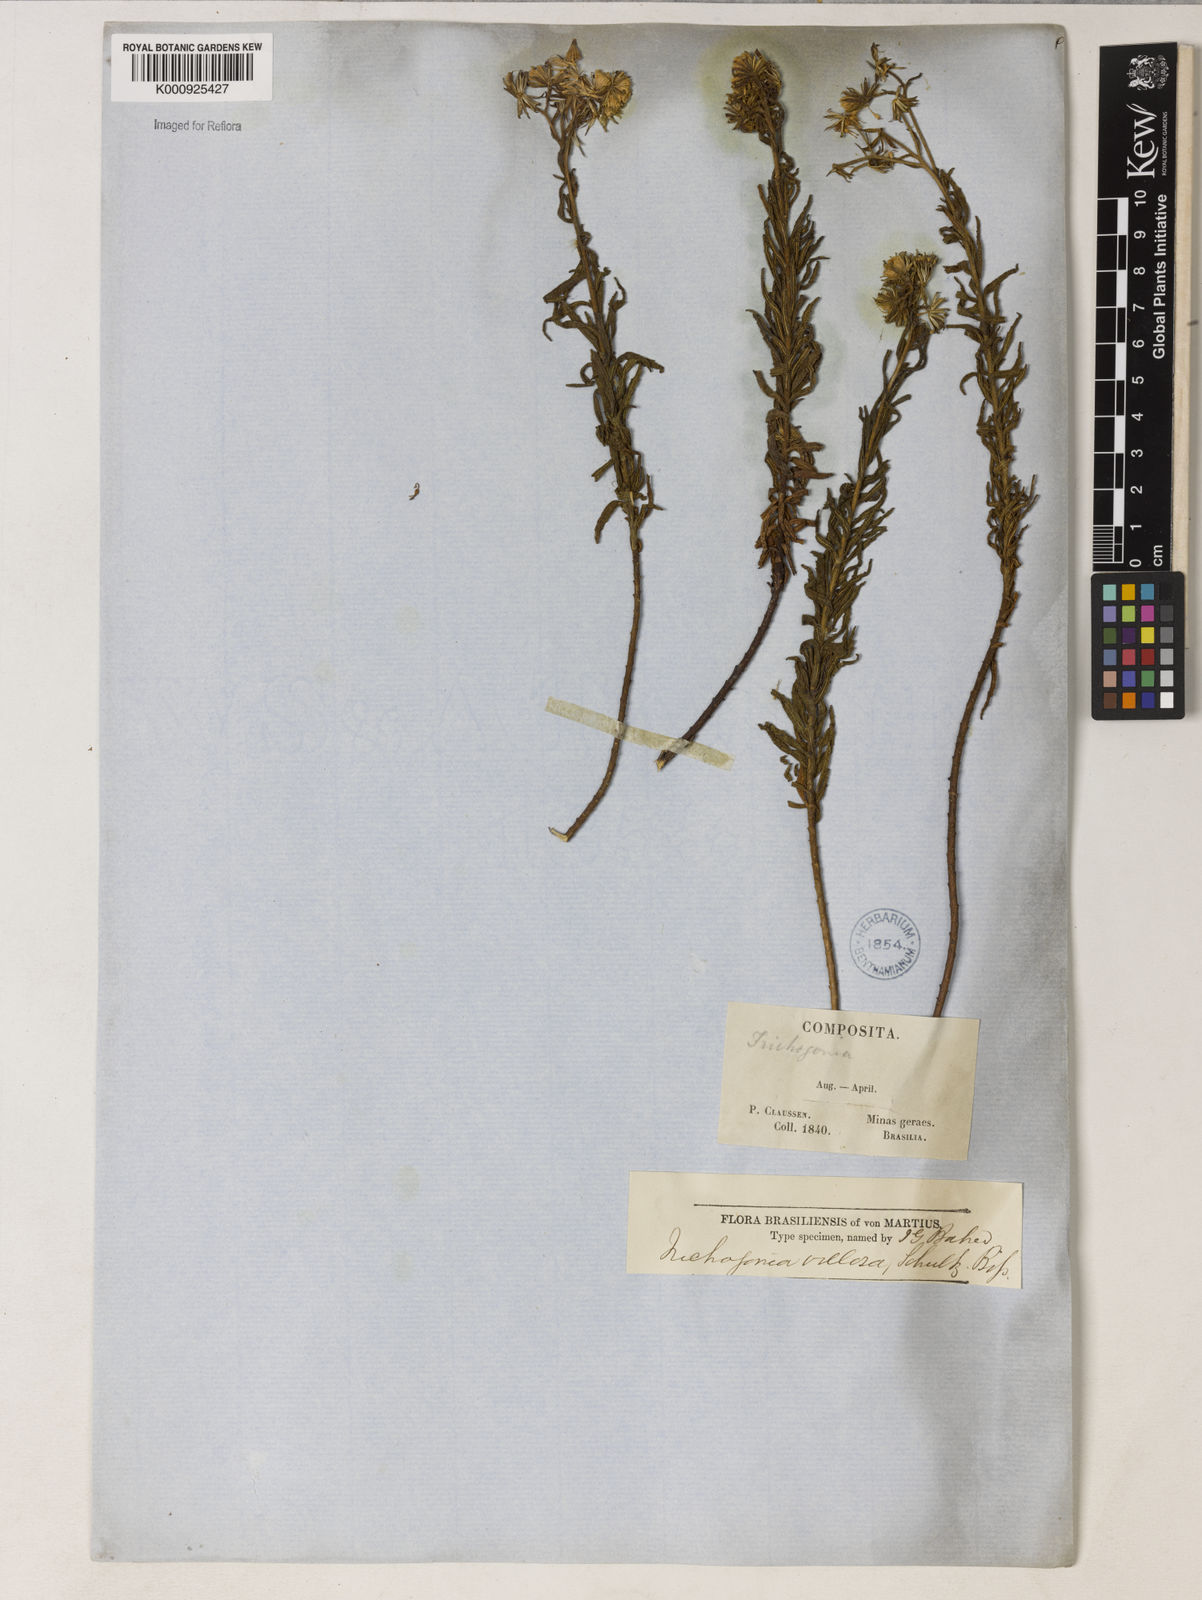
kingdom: Plantae
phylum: Tracheophyta
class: Magnoliopsida
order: Asterales
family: Asteraceae
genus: Trichogonia
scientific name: Trichogonia villosa
